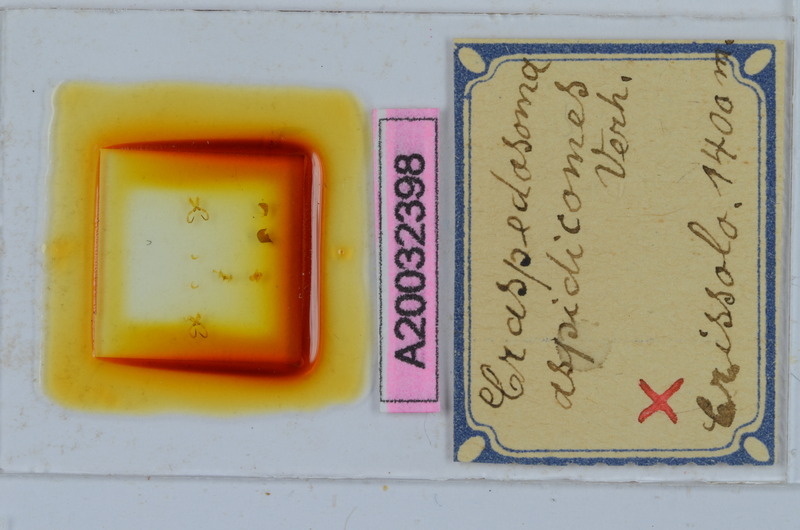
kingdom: Animalia
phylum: Arthropoda
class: Diplopoda
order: Chordeumatida
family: Craspedosomatidae
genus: Craspedosoma
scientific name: Craspedosoma furculigerum
